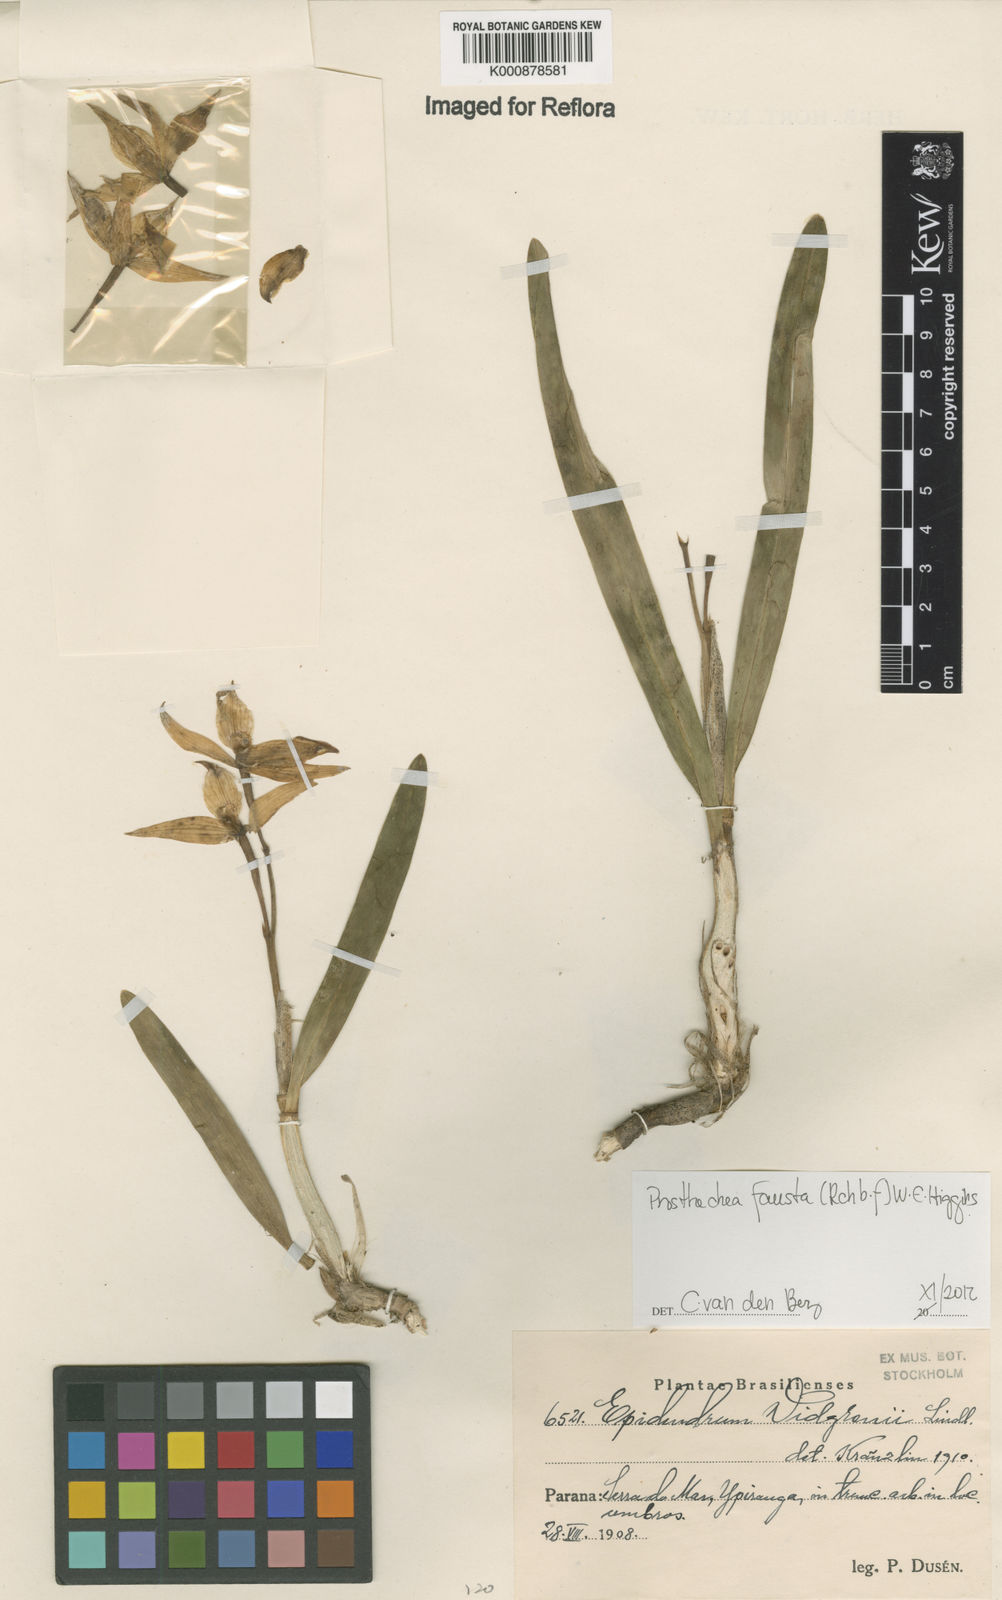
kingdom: Plantae
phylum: Tracheophyta
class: Liliopsida
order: Asparagales
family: Orchidaceae
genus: Prosthechea
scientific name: Prosthechea fausta
